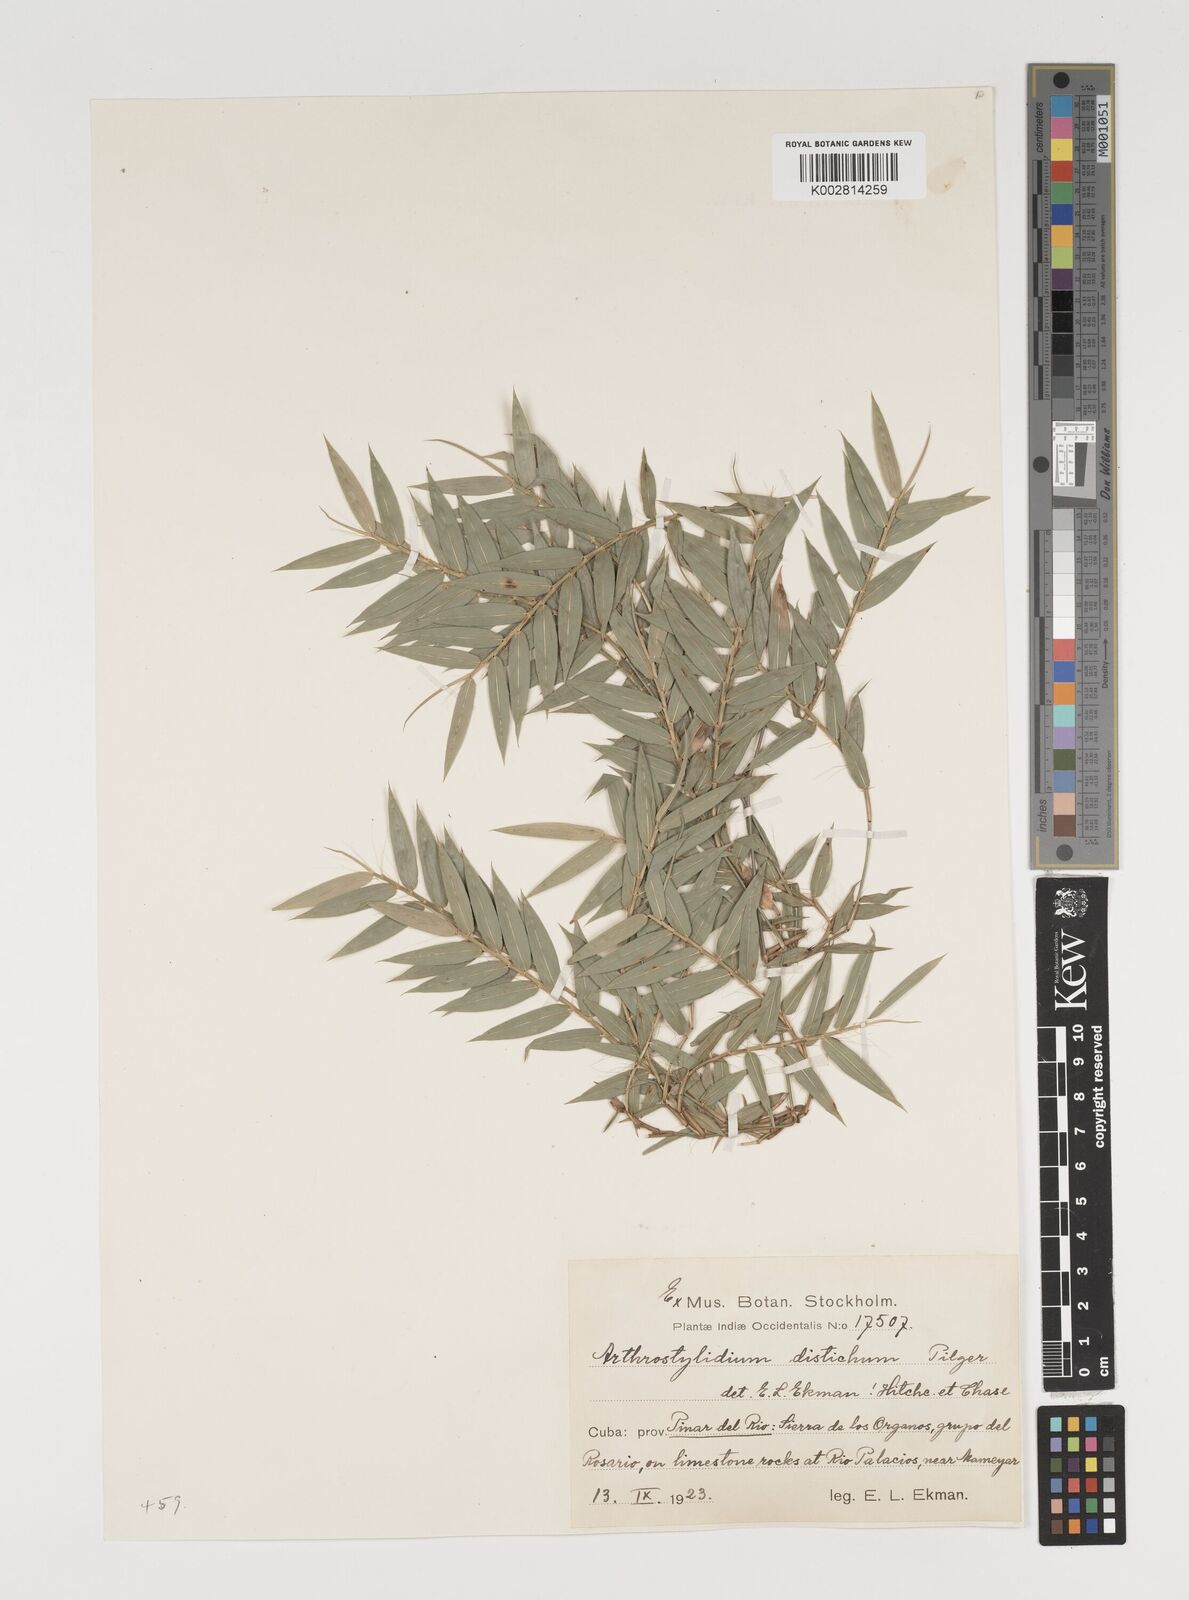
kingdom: Plantae
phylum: Tracheophyta
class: Liliopsida
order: Poales
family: Poaceae
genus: Arthrostylidium
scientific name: Arthrostylidium distichum
